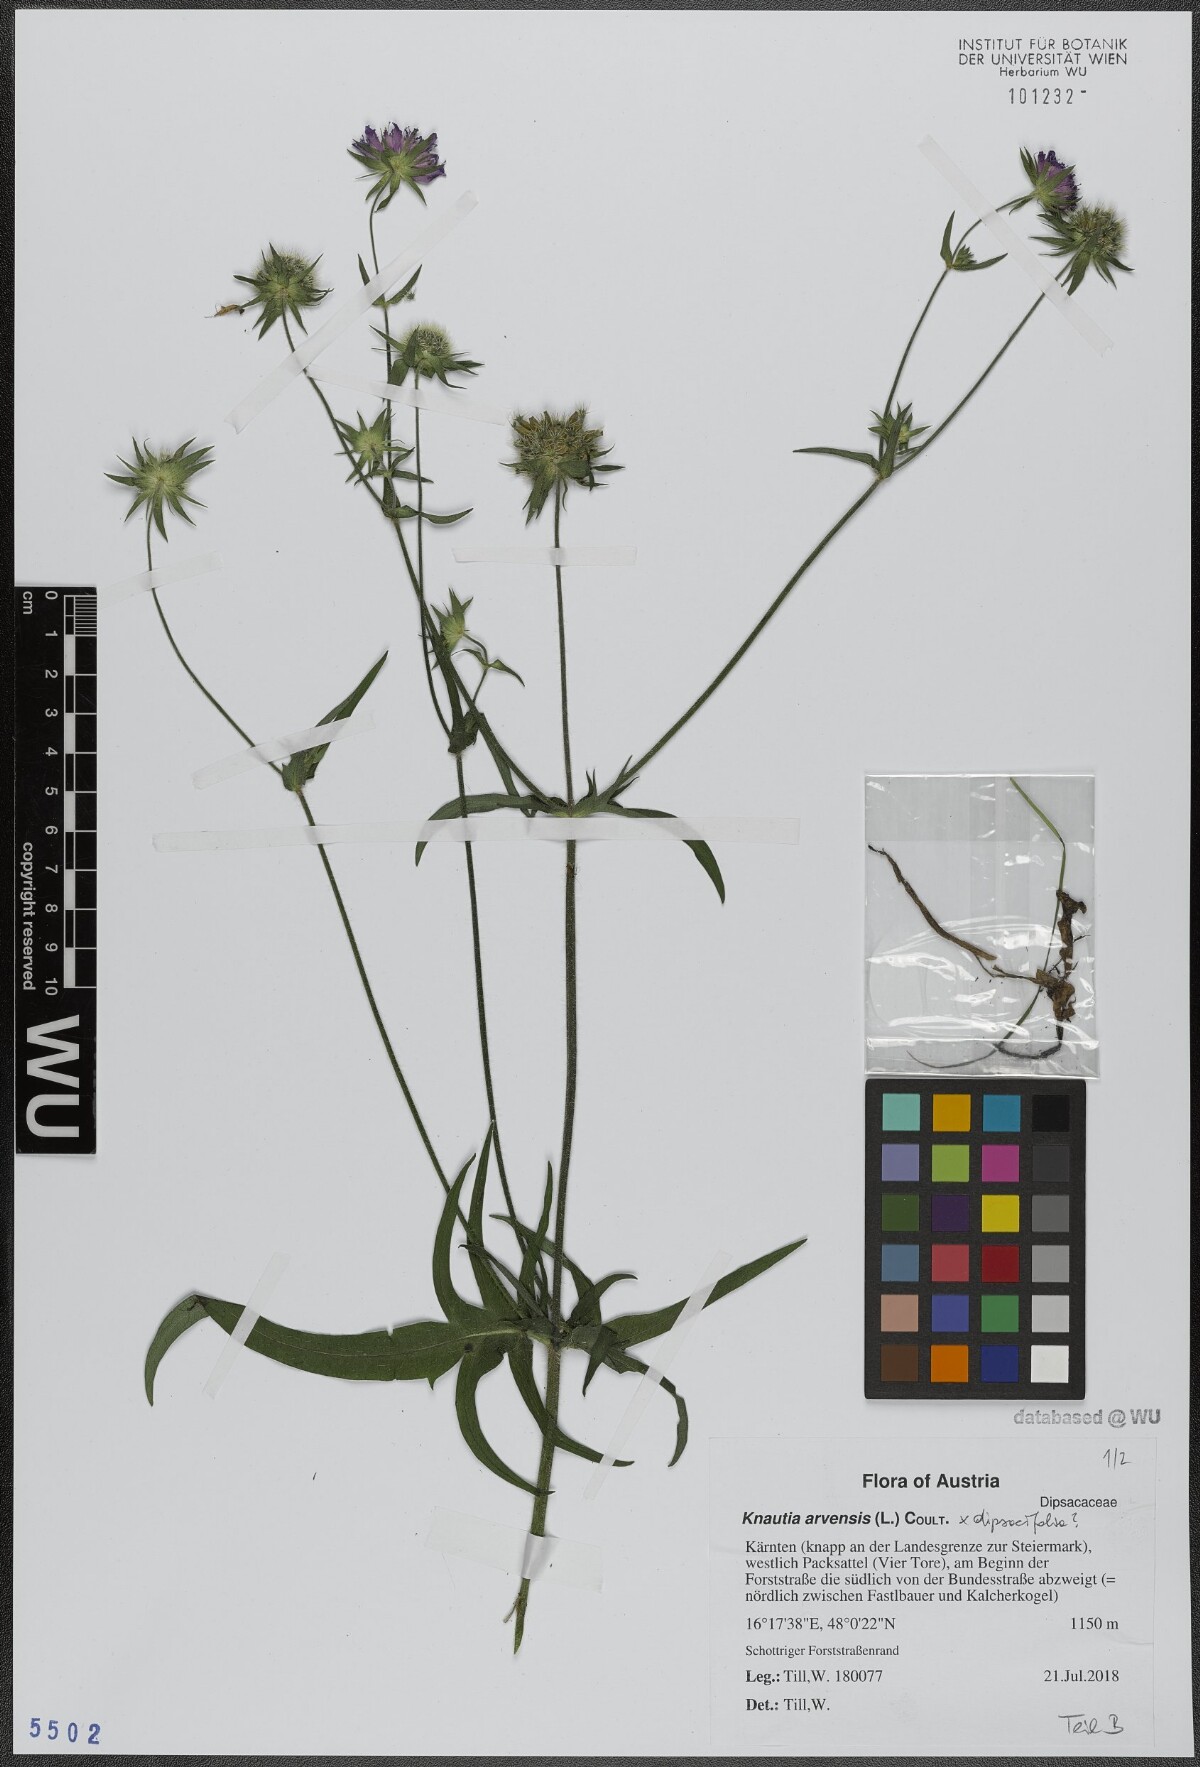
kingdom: Plantae
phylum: Tracheophyta
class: Magnoliopsida
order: Dipsacales
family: Caprifoliaceae
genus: Knautia
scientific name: Knautia arvensis
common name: Field scabiosa
